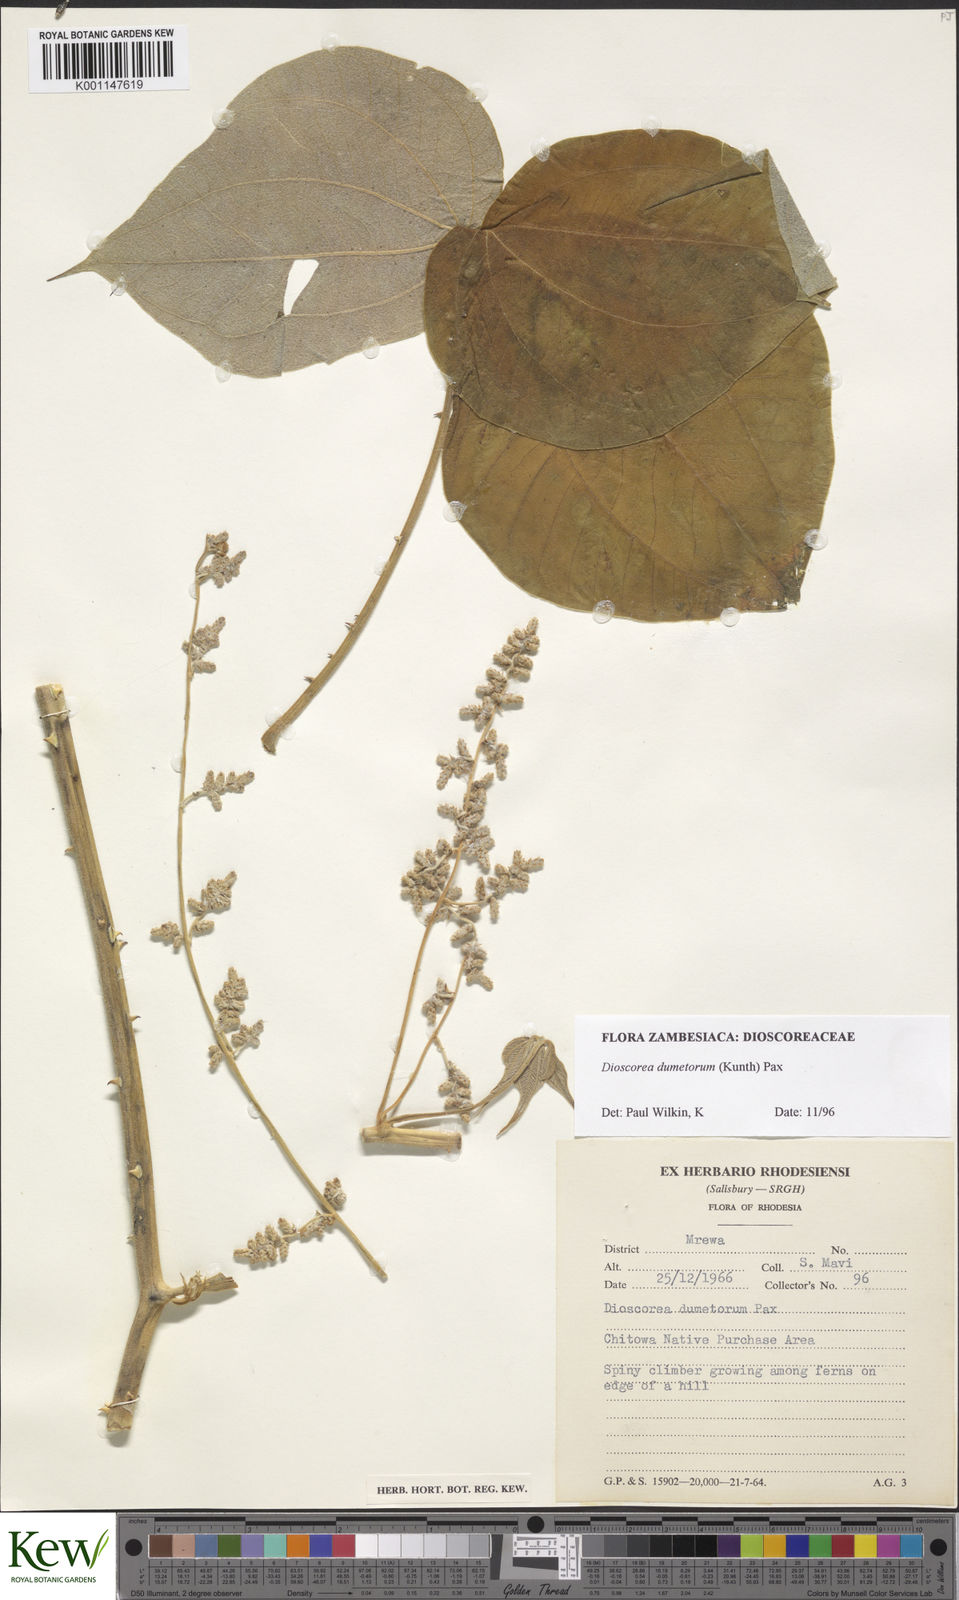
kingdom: Plantae
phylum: Tracheophyta
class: Liliopsida
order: Dioscoreales
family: Dioscoreaceae
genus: Dioscorea
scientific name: Dioscorea dumetorum
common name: African bitter yam
